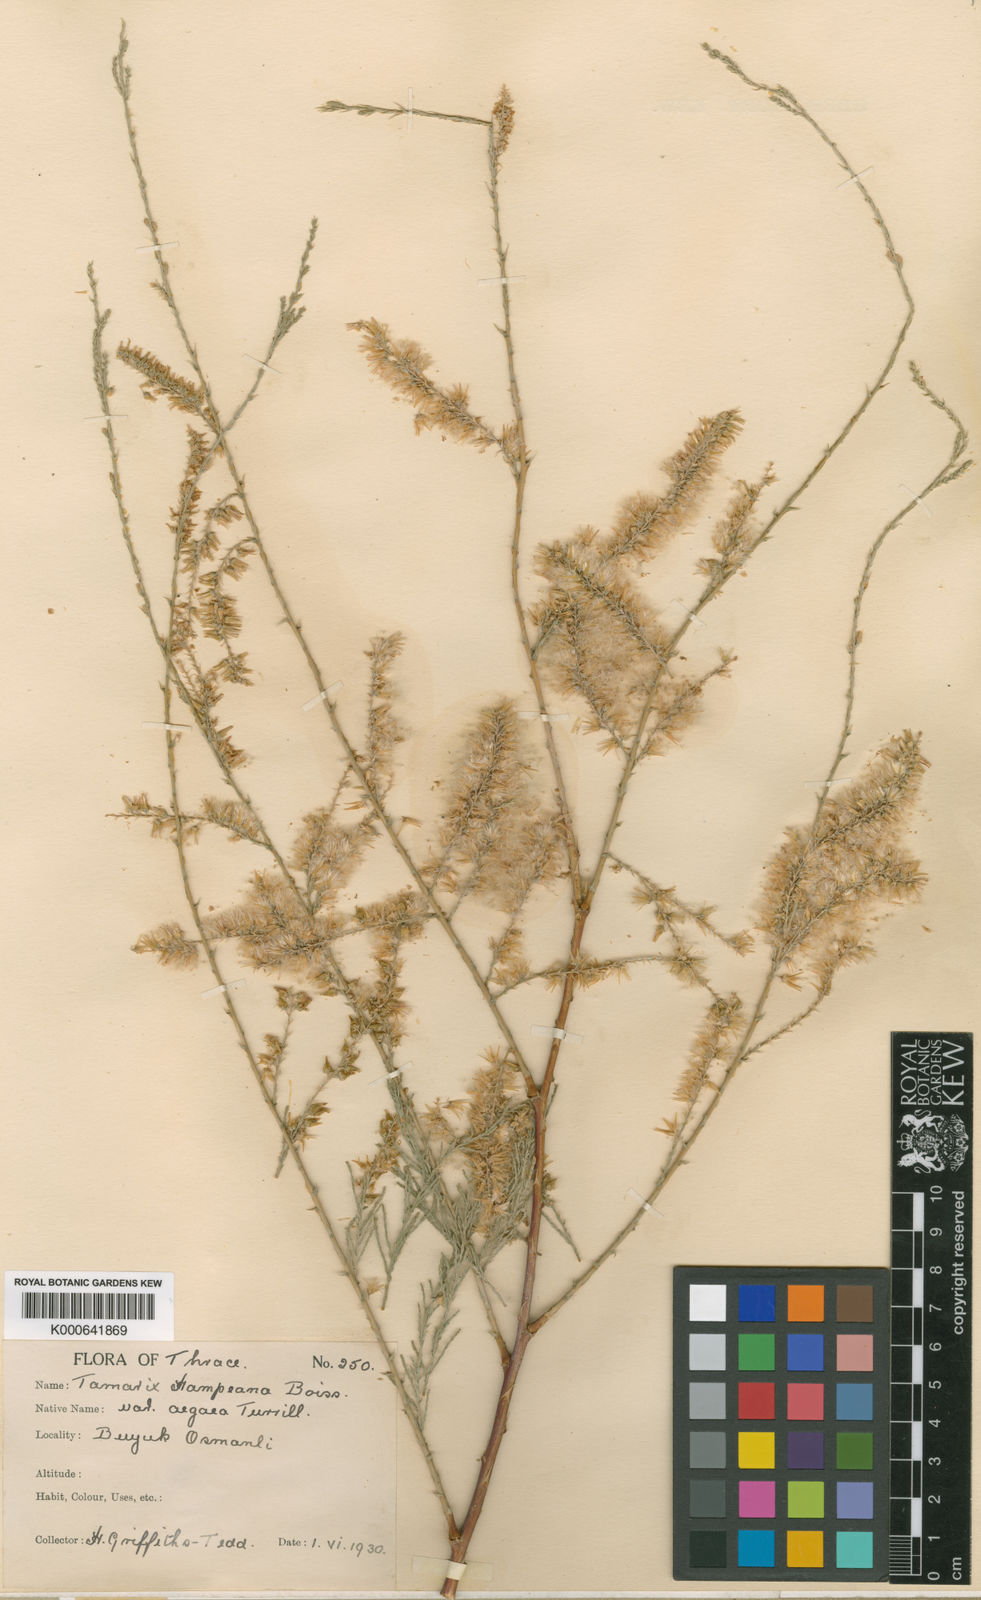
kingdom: Plantae
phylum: Tracheophyta
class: Magnoliopsida
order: Caryophyllales
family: Tamaricaceae
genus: Tamarix
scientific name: Tamarix hampeana
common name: Hampe’s tamarisk
